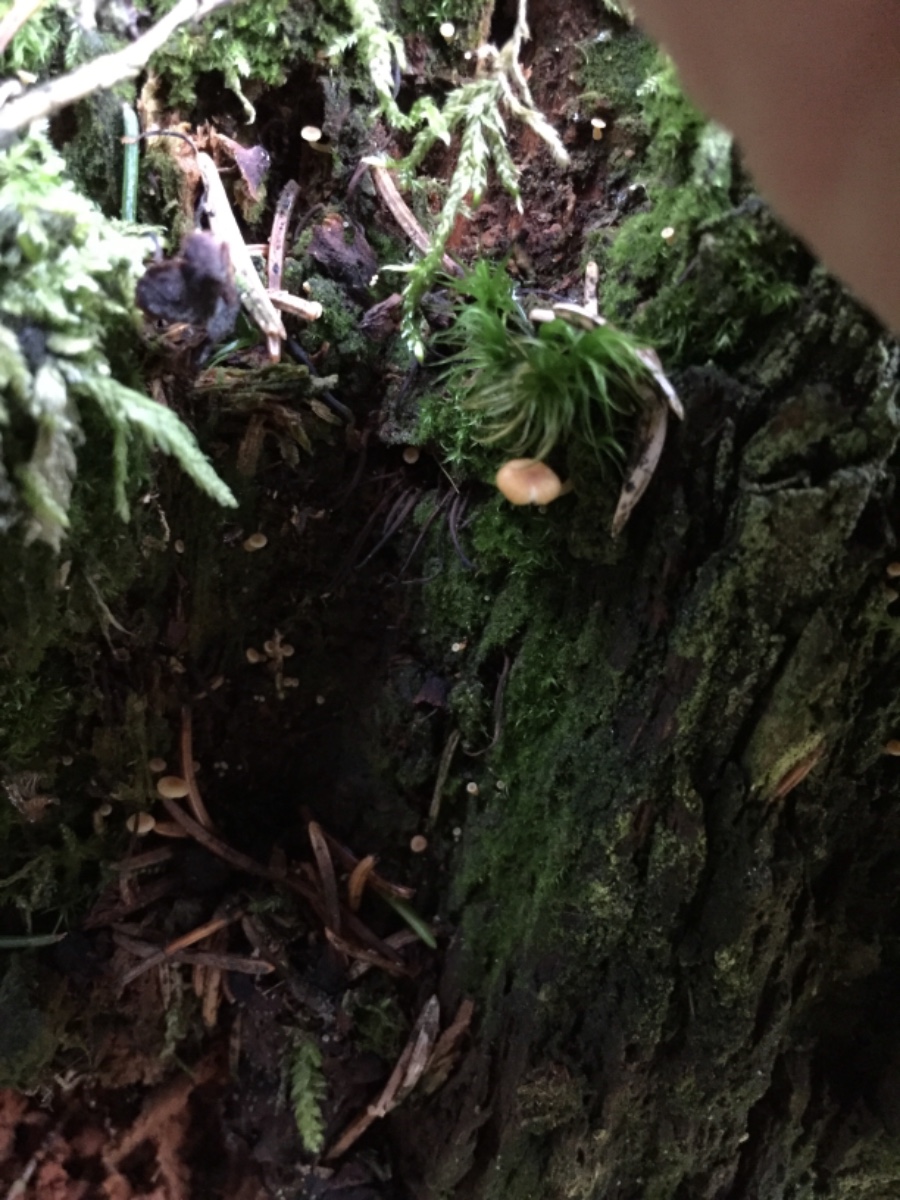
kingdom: Fungi
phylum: Basidiomycota
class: Agaricomycetes
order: Agaricales
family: Mycenaceae
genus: Xeromphalina
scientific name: Xeromphalina campanella
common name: klokke-tørhat
